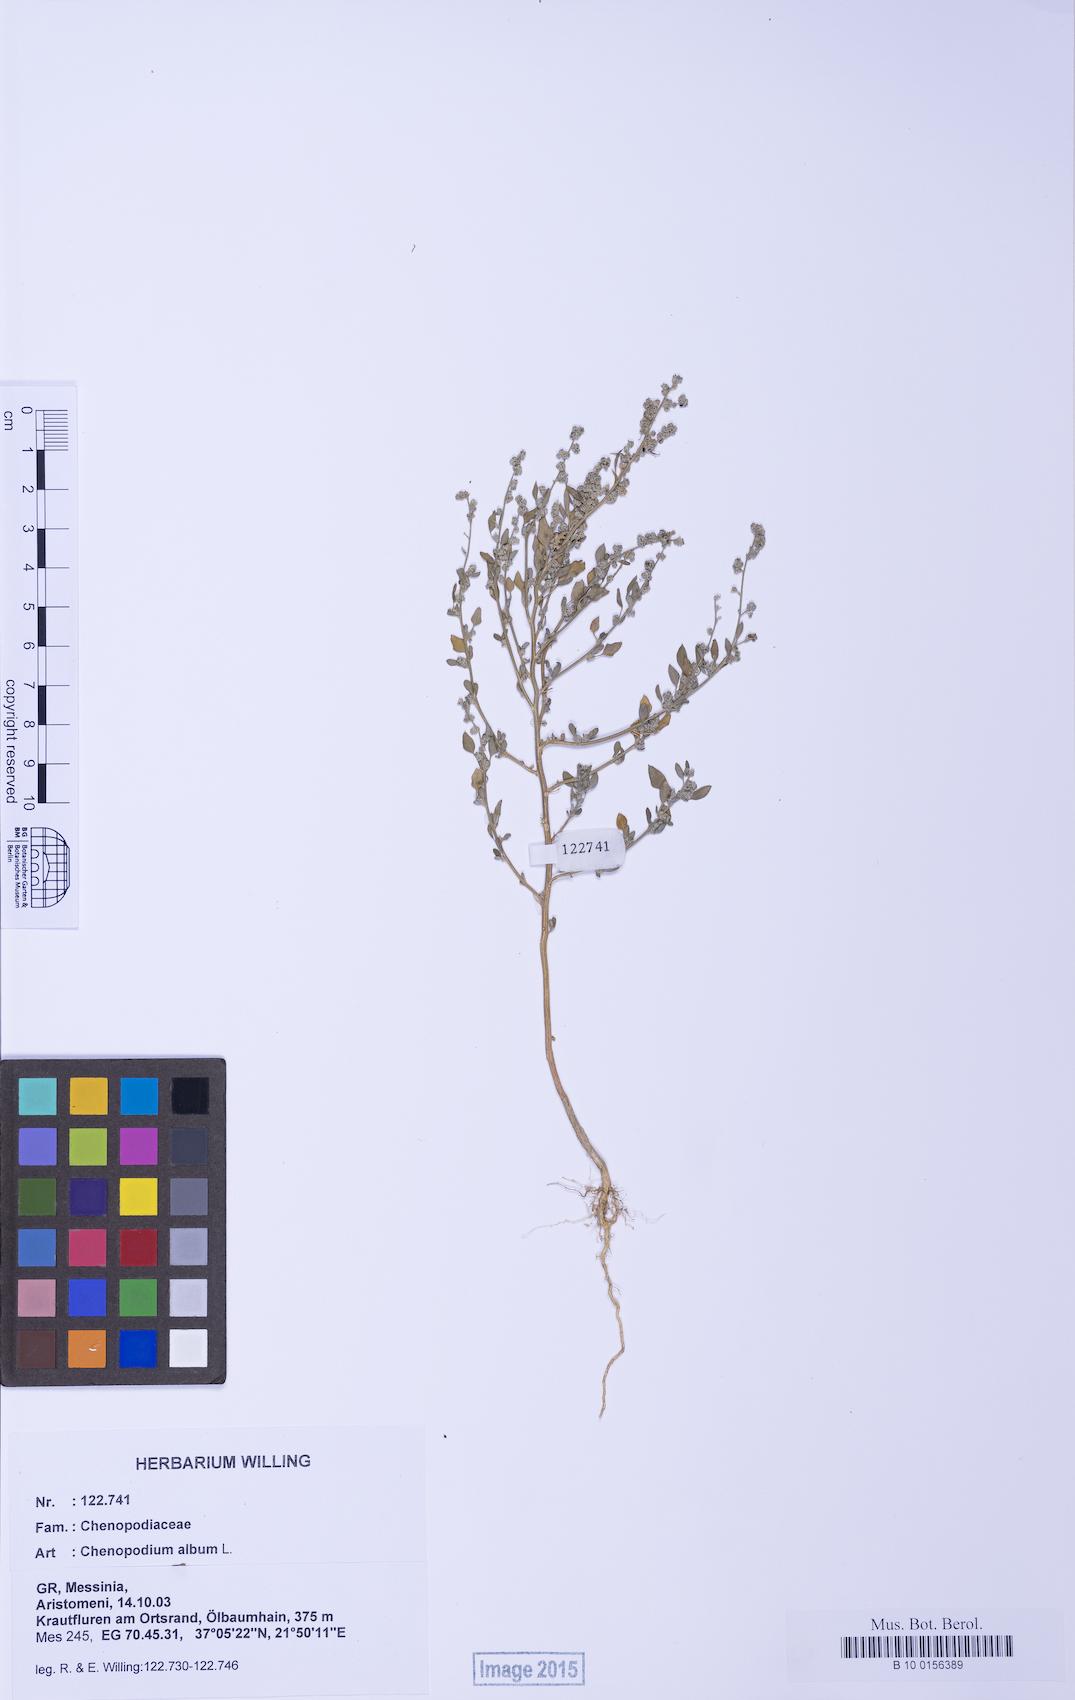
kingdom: Plantae
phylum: Tracheophyta
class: Magnoliopsida
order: Caryophyllales
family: Amaranthaceae
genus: Chenopodium
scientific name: Chenopodium striatiforme
